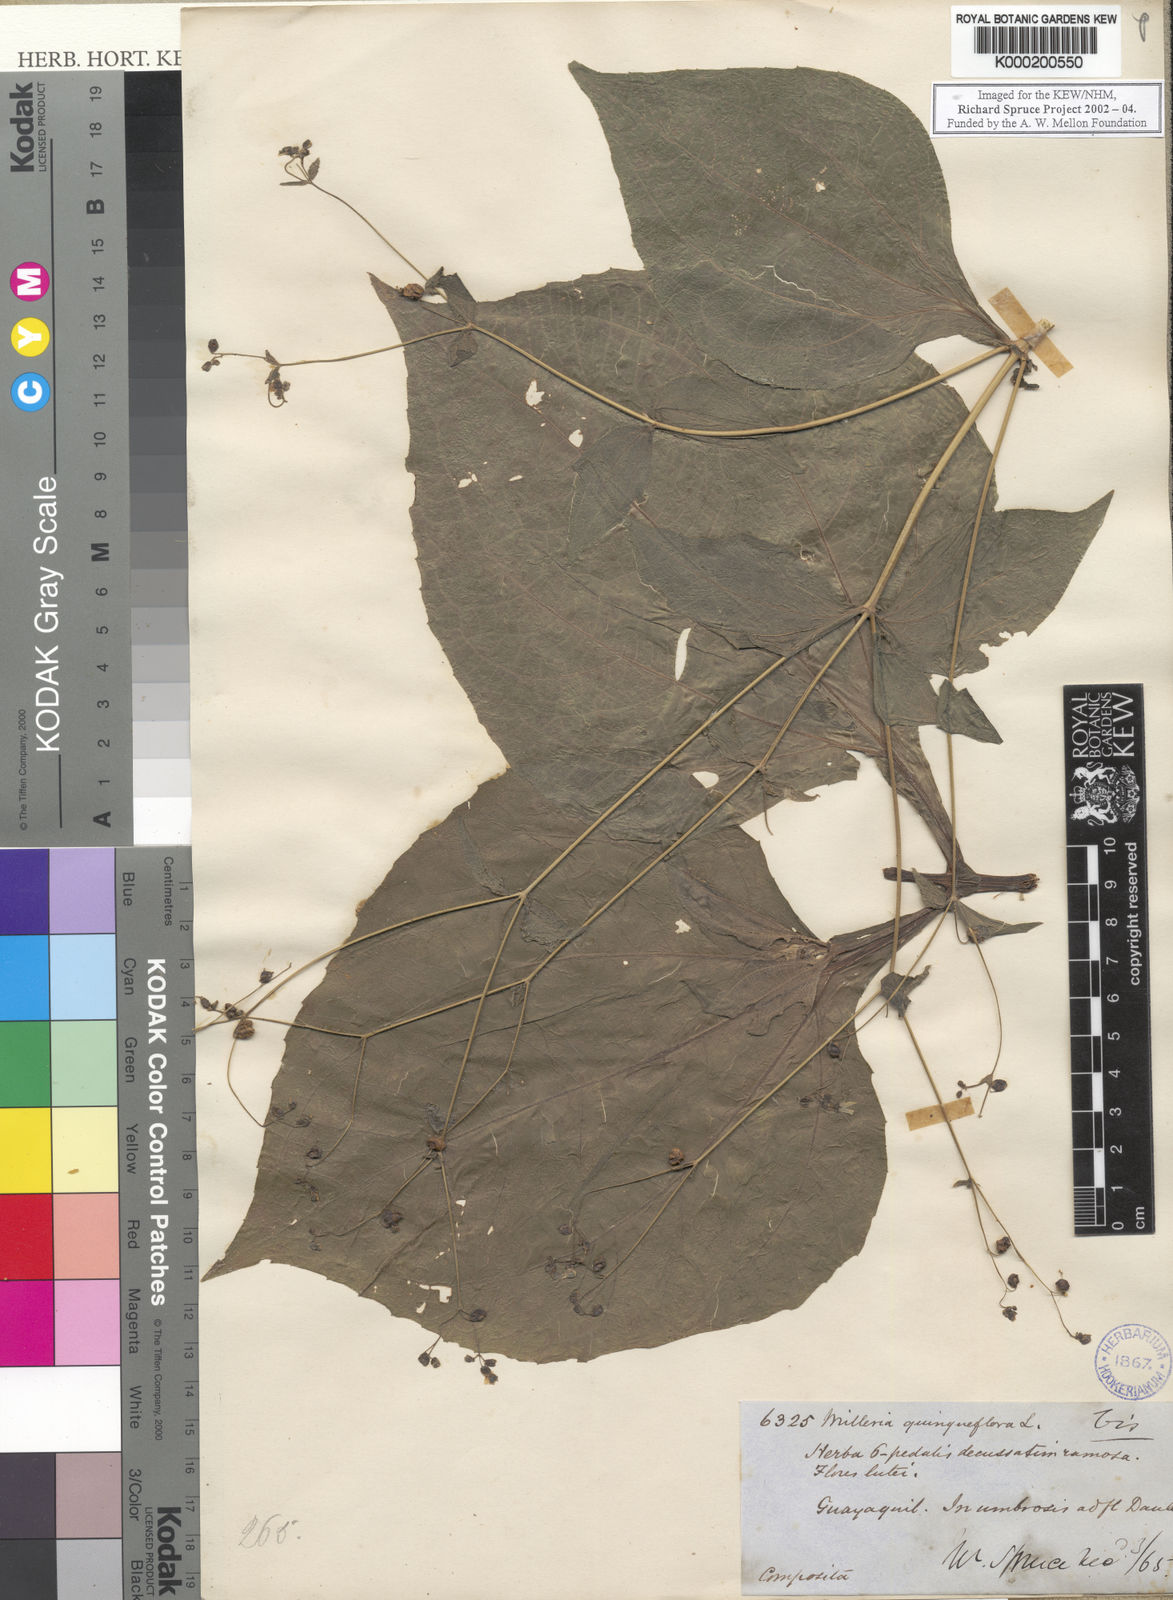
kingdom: Plantae
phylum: Tracheophyta
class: Magnoliopsida
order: Asterales
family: Asteraceae
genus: Milleria
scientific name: Milleria quinqueflora
